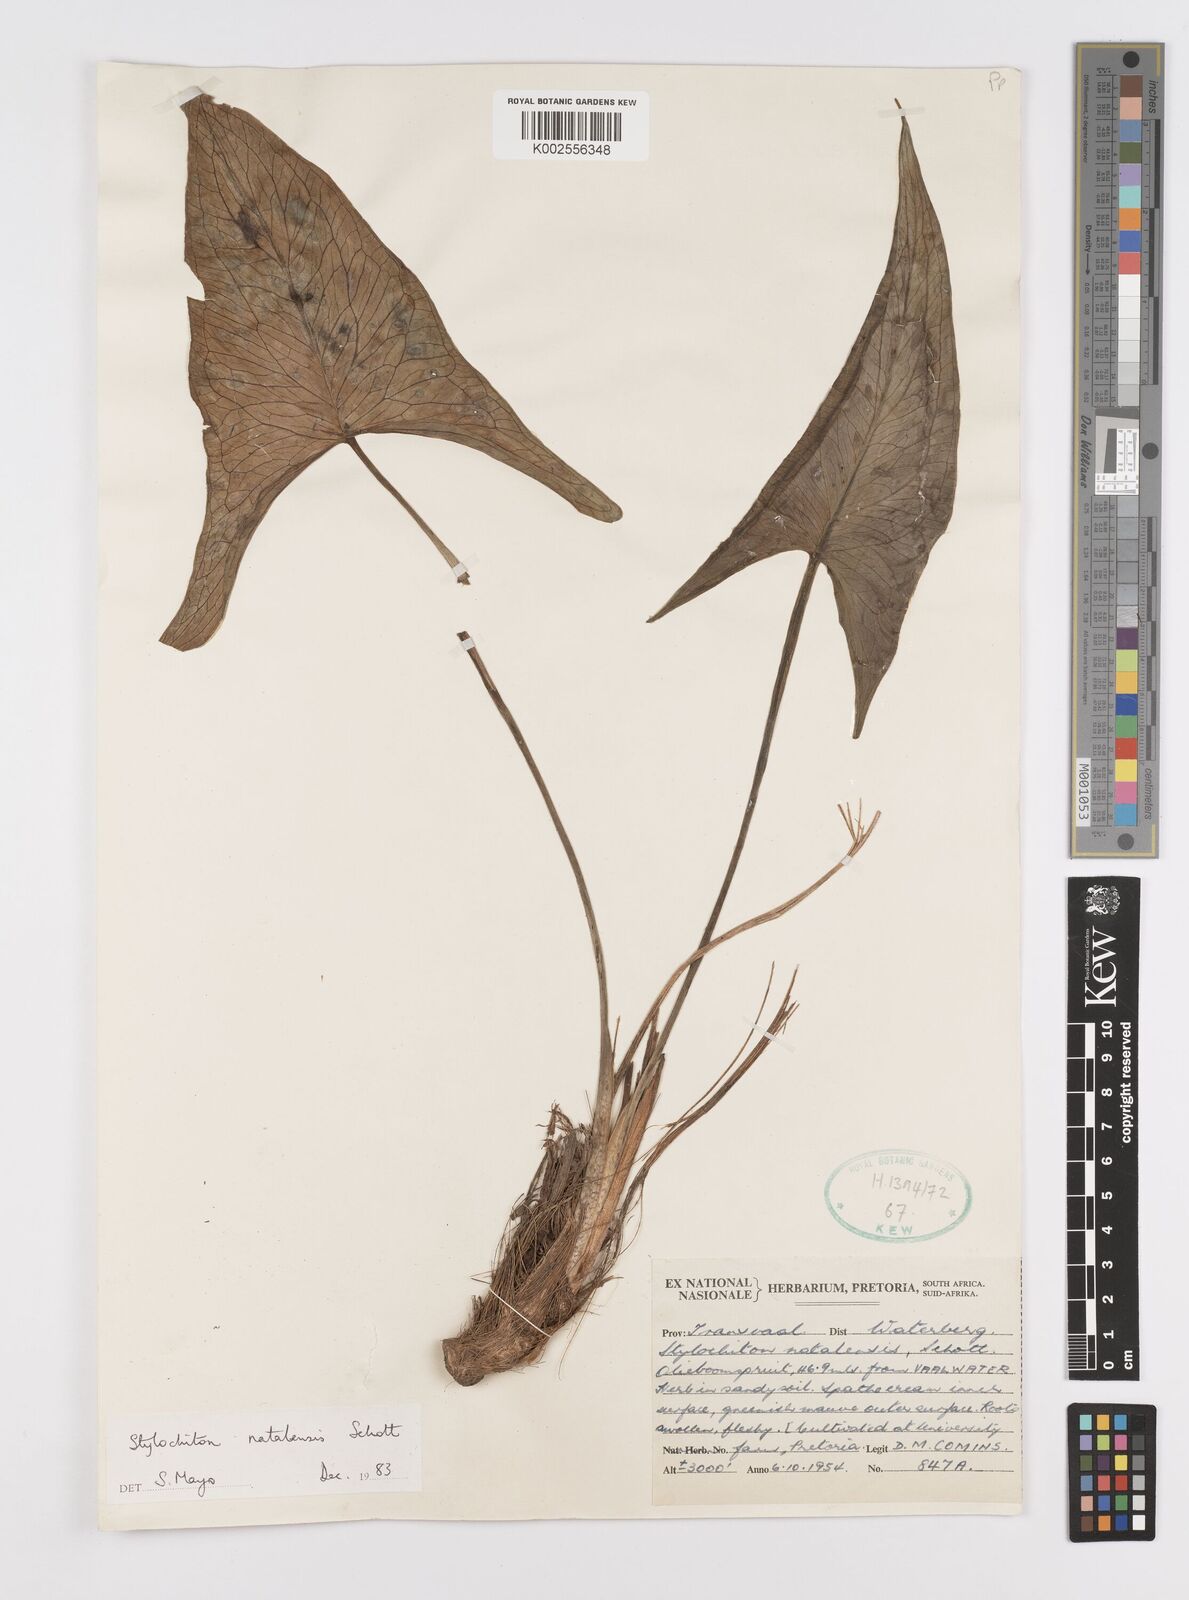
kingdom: Plantae
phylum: Tracheophyta
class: Liliopsida
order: Alismatales
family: Araceae
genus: Stylochaeton
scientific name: Stylochaeton natalense
